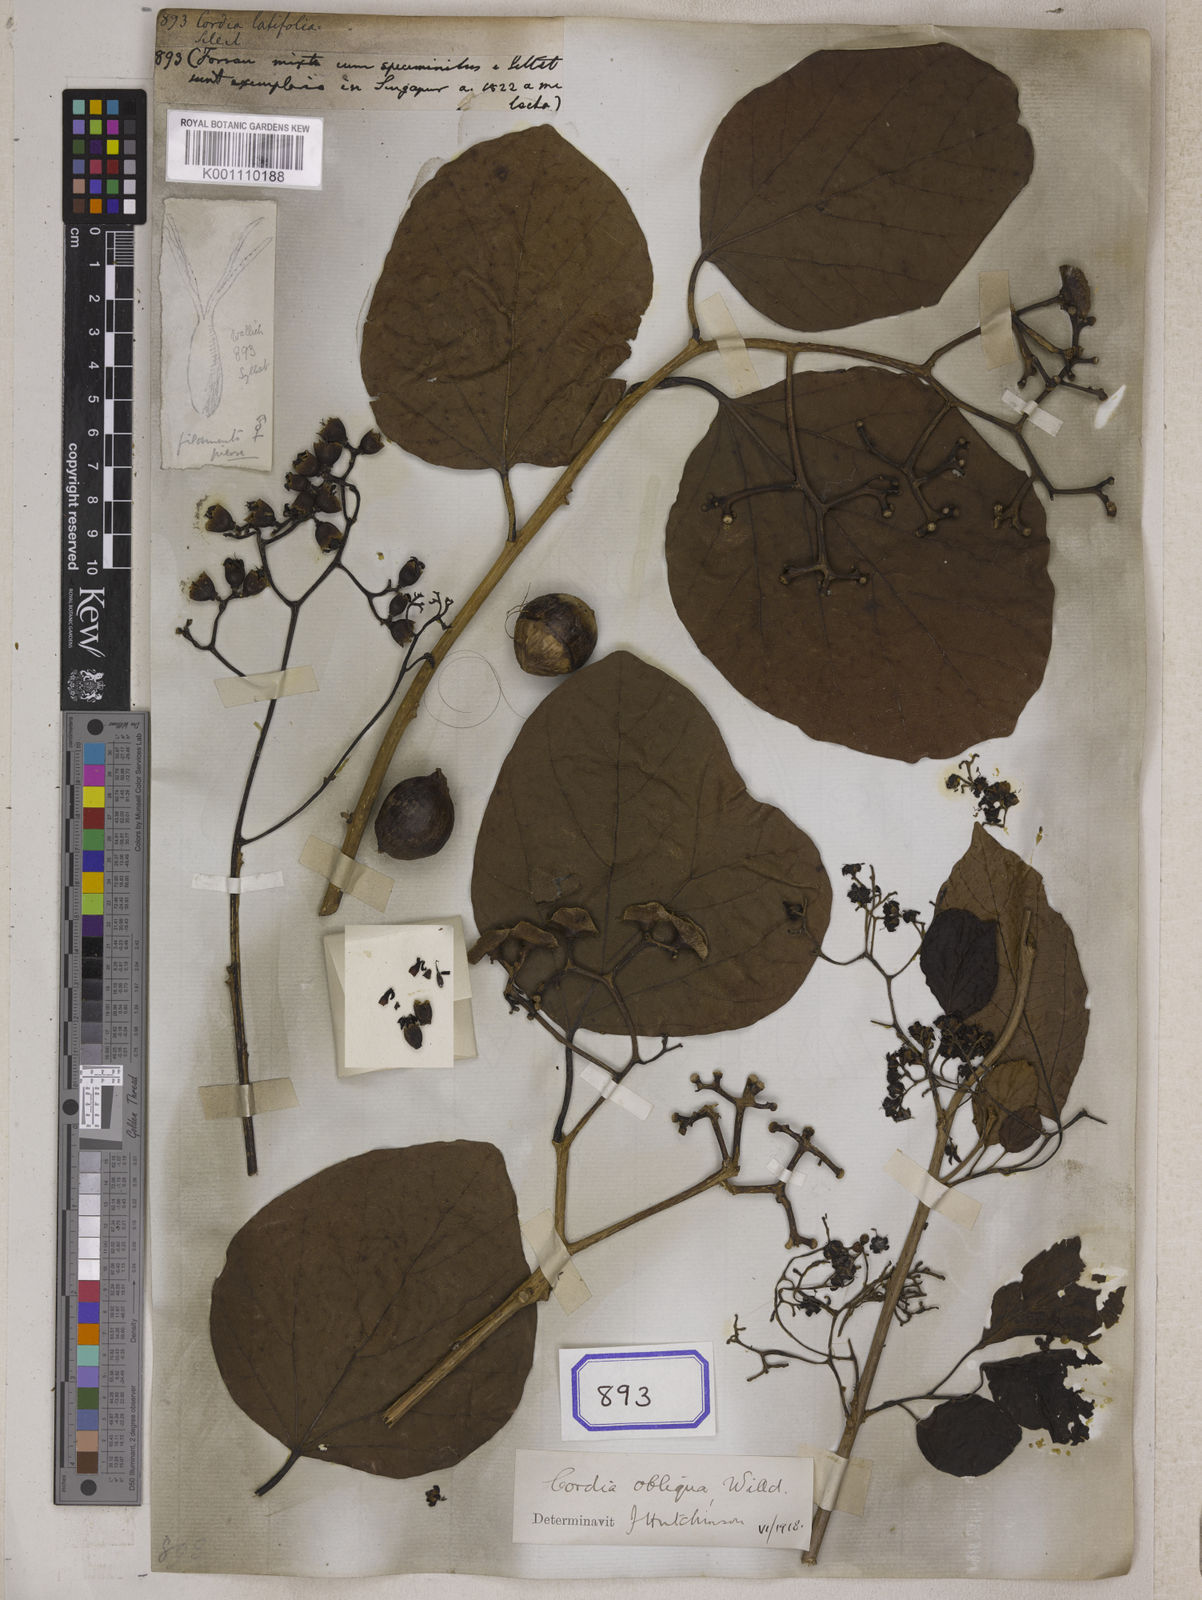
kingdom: Plantae
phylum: Tracheophyta
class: Magnoliopsida
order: Boraginales
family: Cordiaceae
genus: Cordia
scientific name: Cordia
